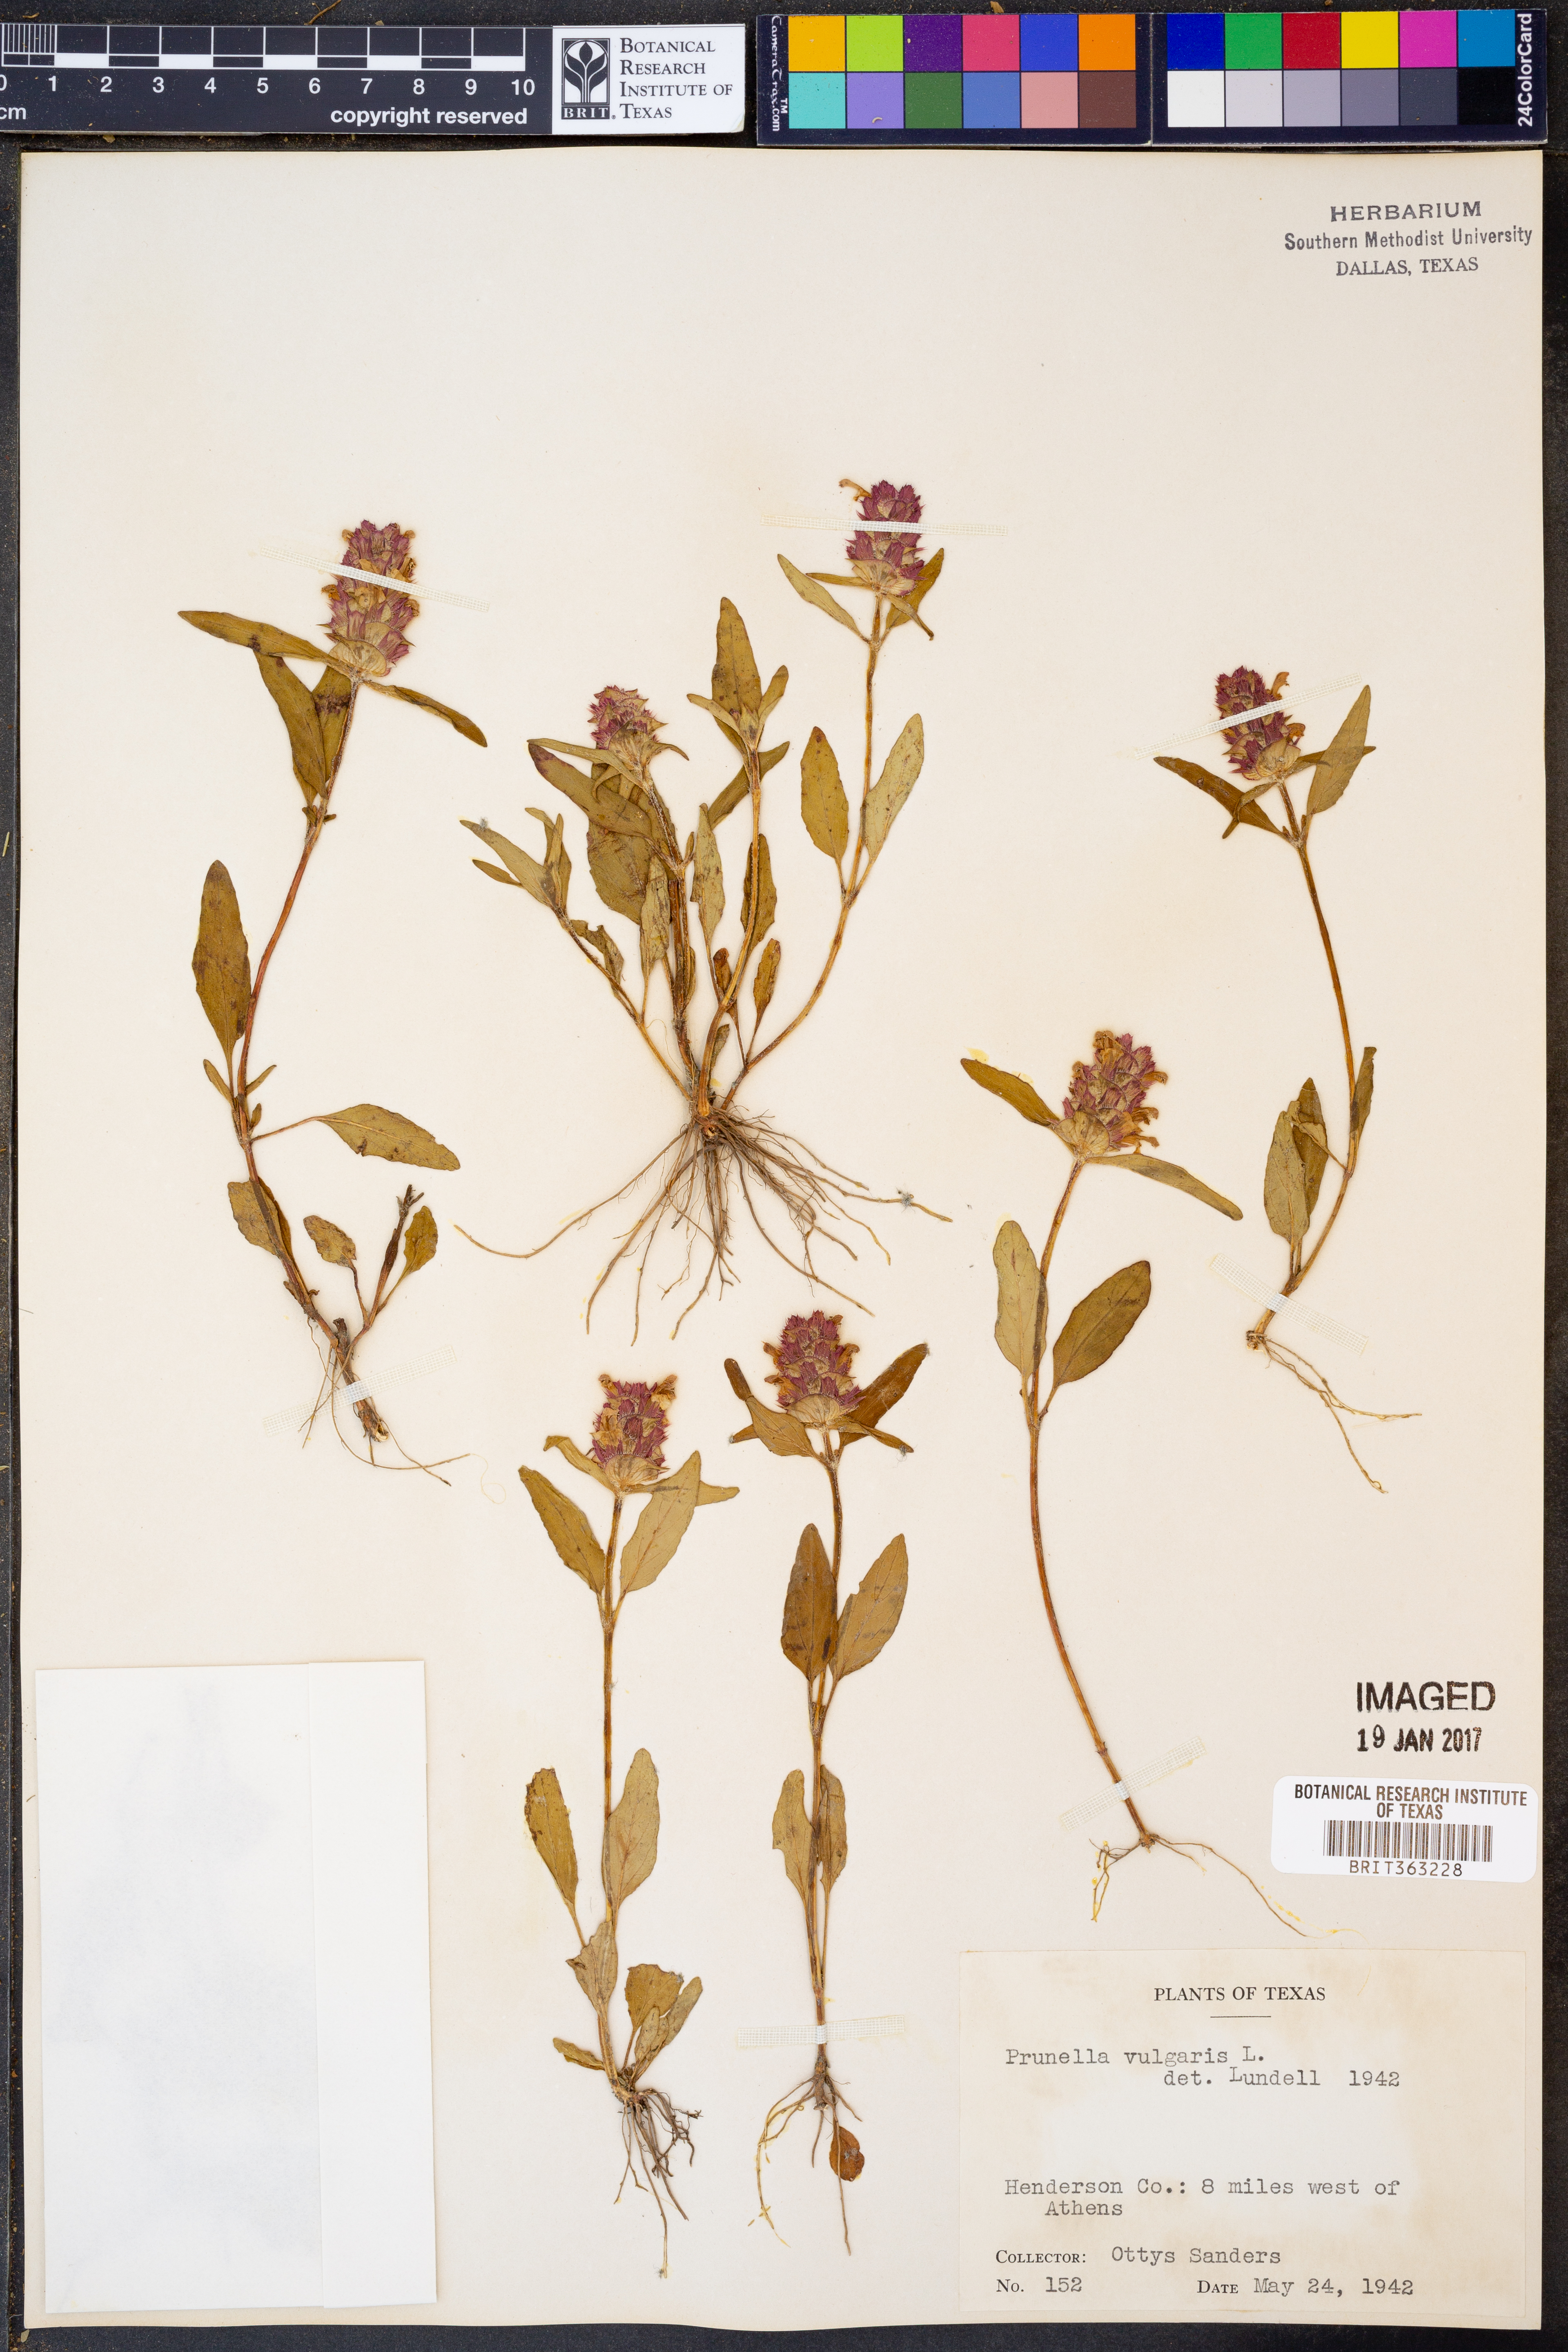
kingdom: Plantae
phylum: Tracheophyta
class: Magnoliopsida
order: Lamiales
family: Lamiaceae
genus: Prunella
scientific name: Prunella vulgaris
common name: Heal-all
